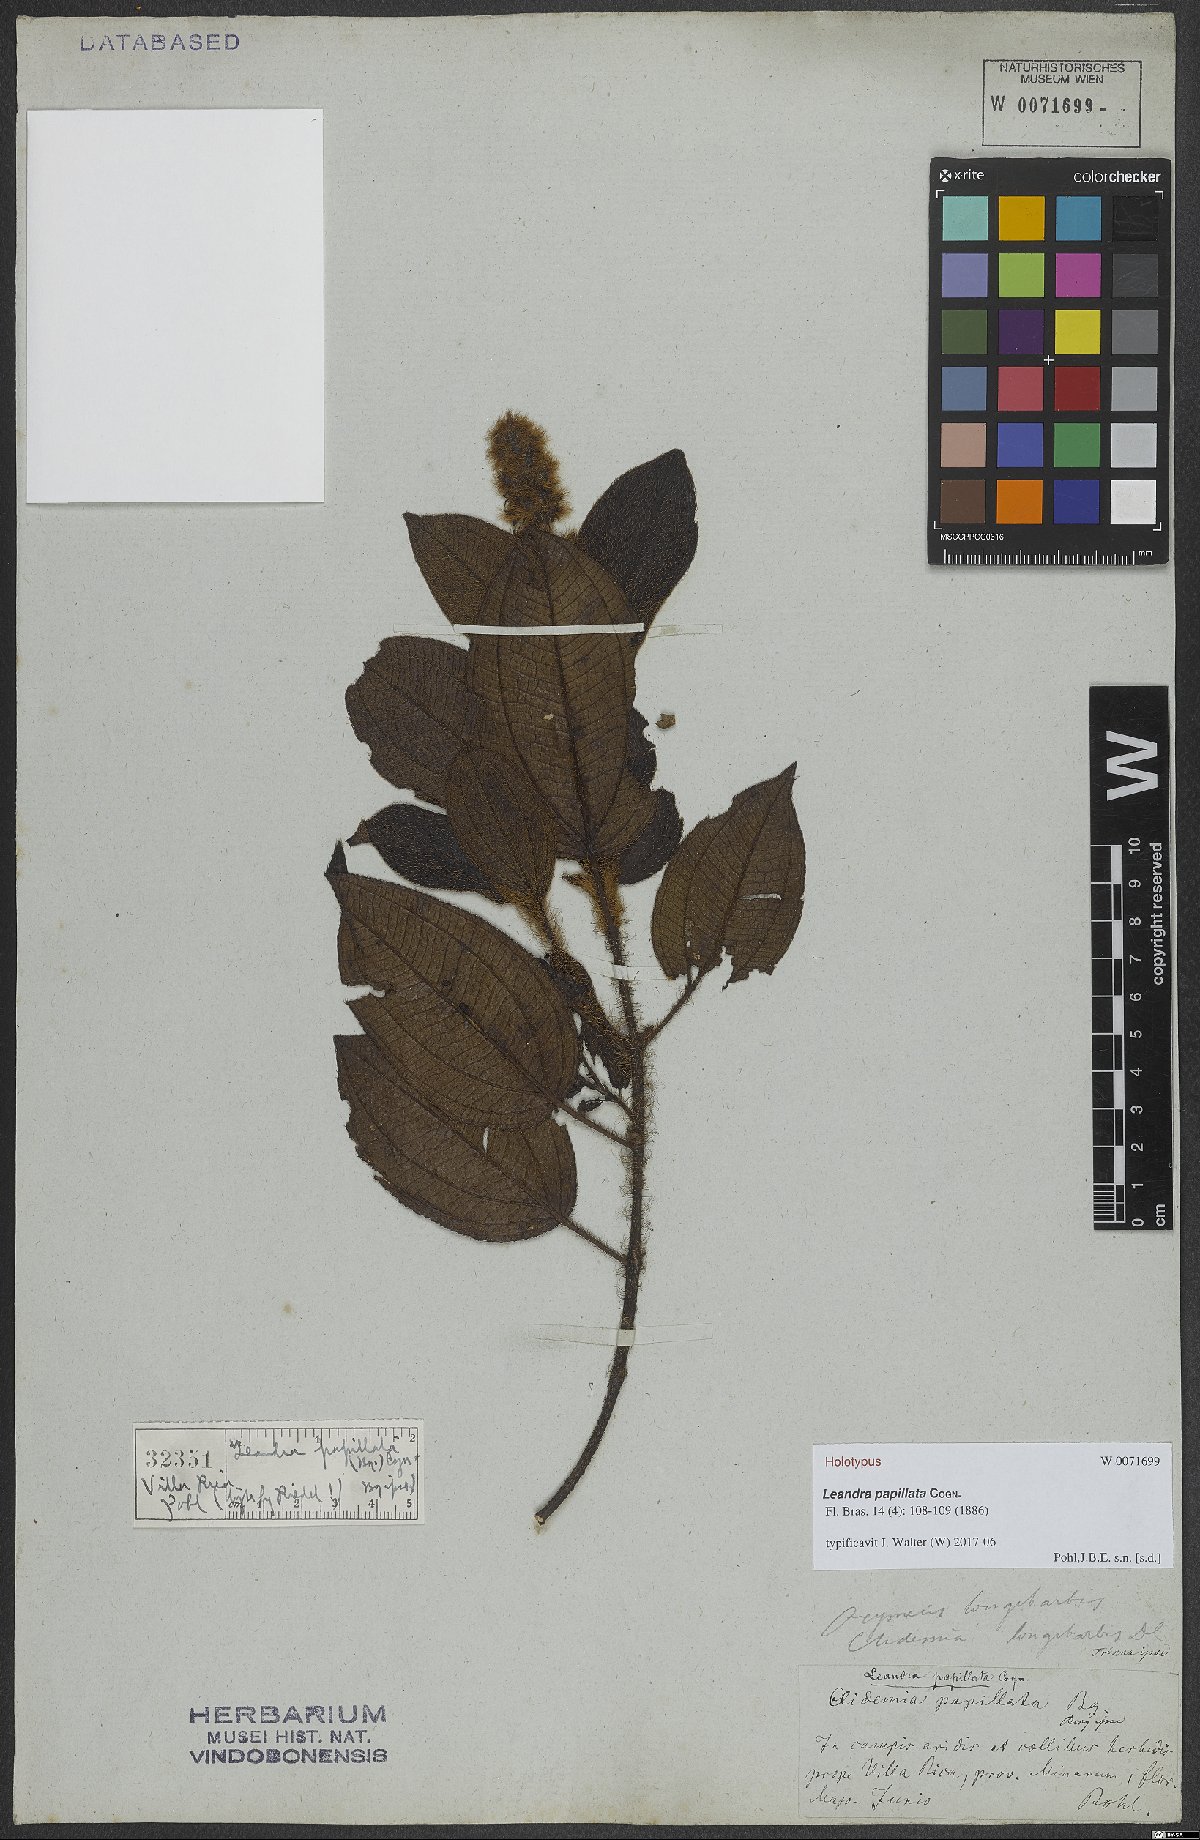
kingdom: Plantae
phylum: Tracheophyta
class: Magnoliopsida
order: Myrtales
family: Melastomataceae
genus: Miconia
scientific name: Miconia papillata
